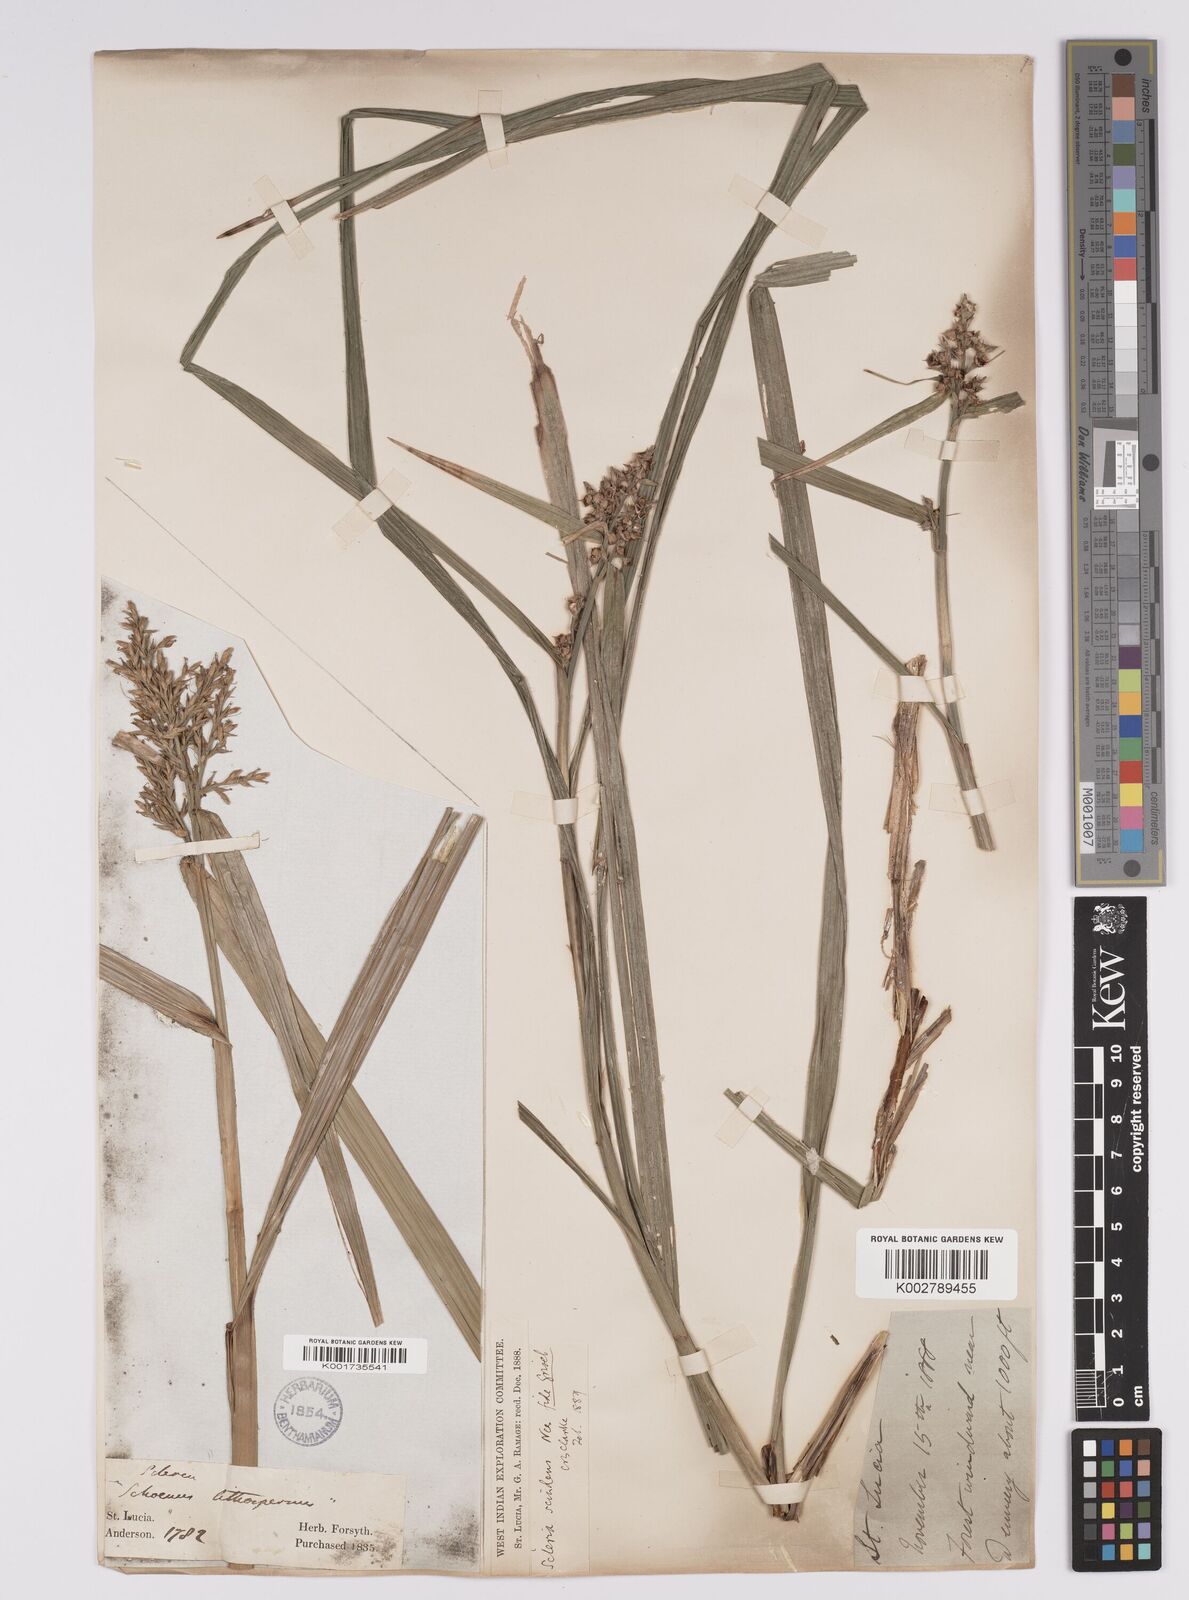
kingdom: Plantae
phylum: Tracheophyta
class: Liliopsida
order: Poales
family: Cyperaceae
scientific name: Cyperaceae
